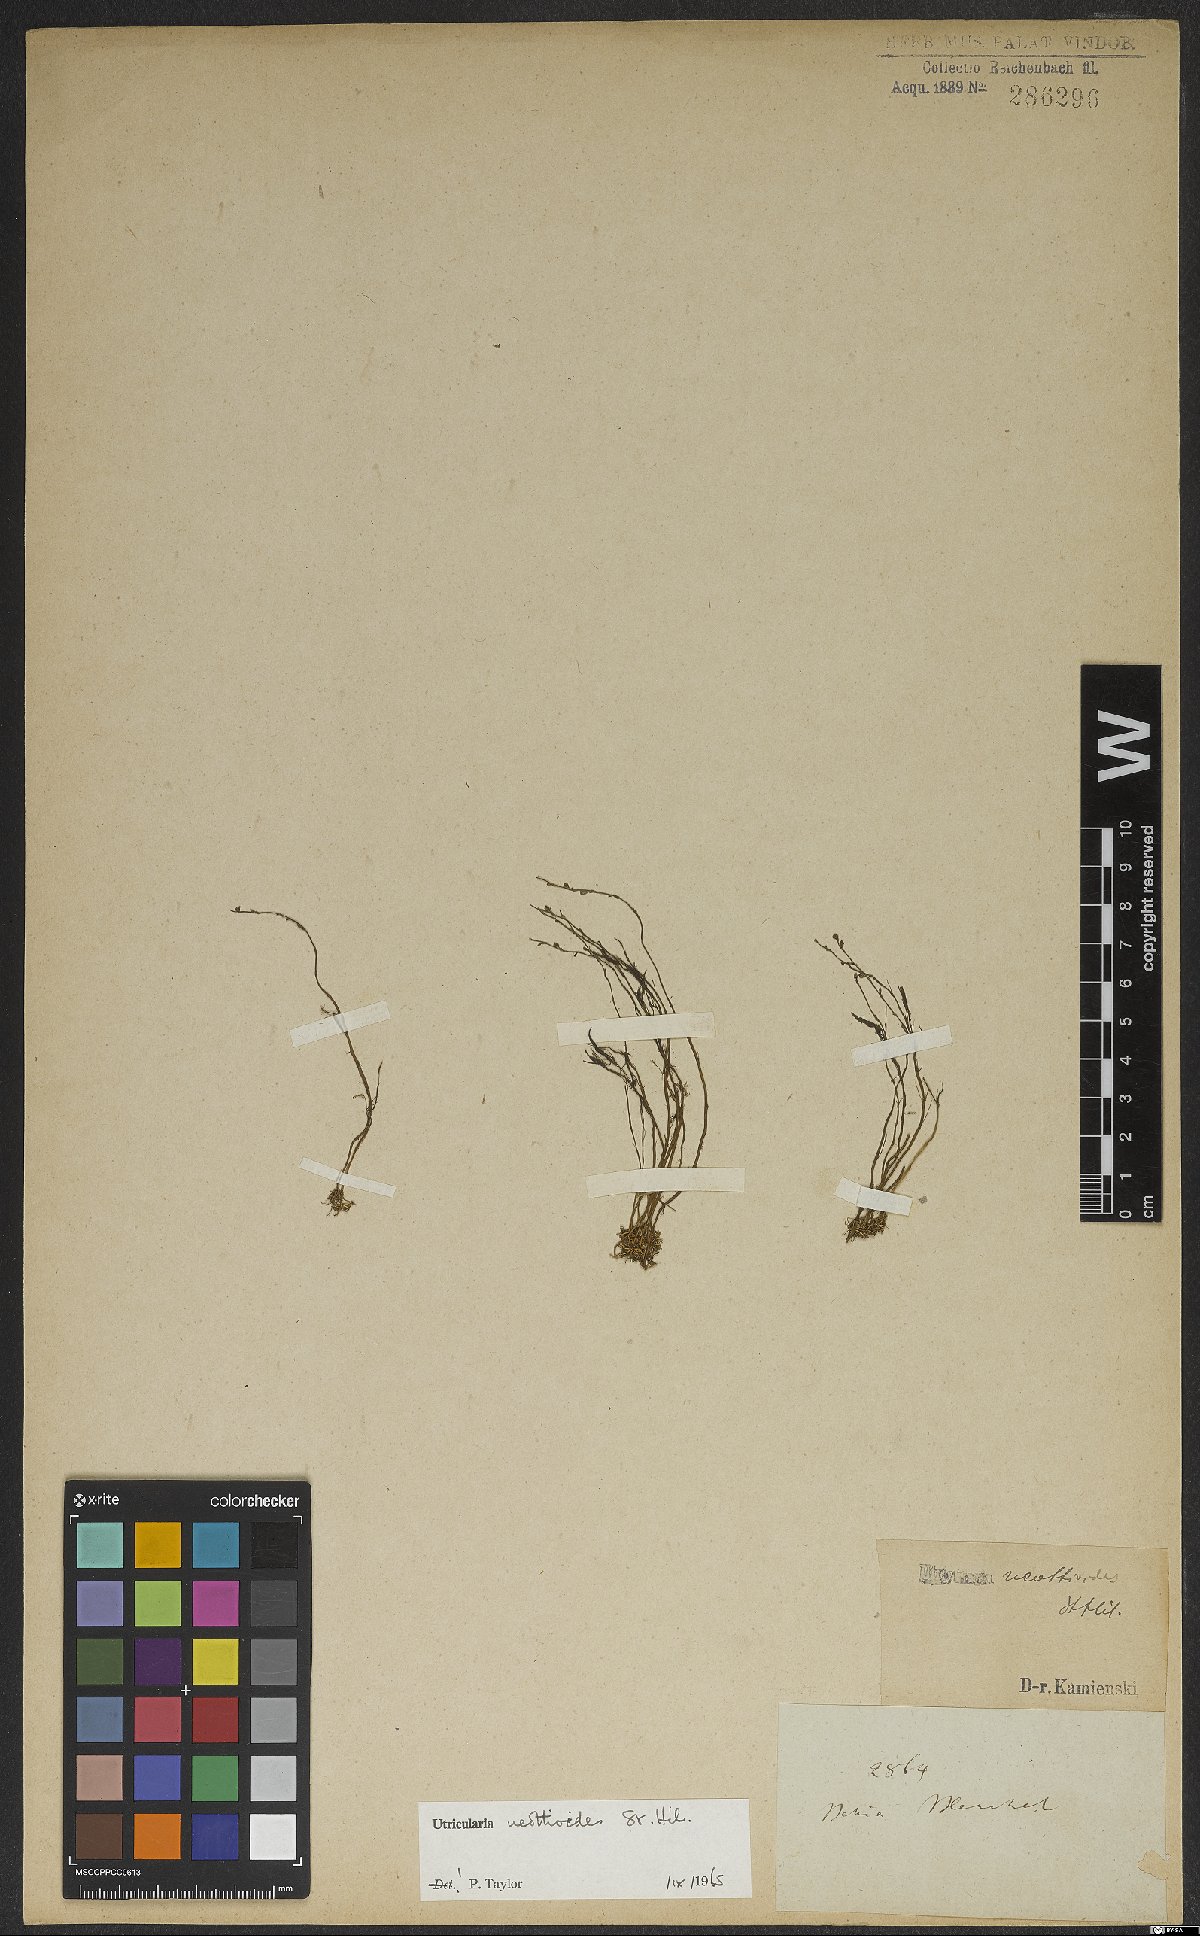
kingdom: Plantae
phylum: Tracheophyta
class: Magnoliopsida
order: Lamiales
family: Lentibulariaceae
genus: Utricularia
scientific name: Utricularia neottioides
